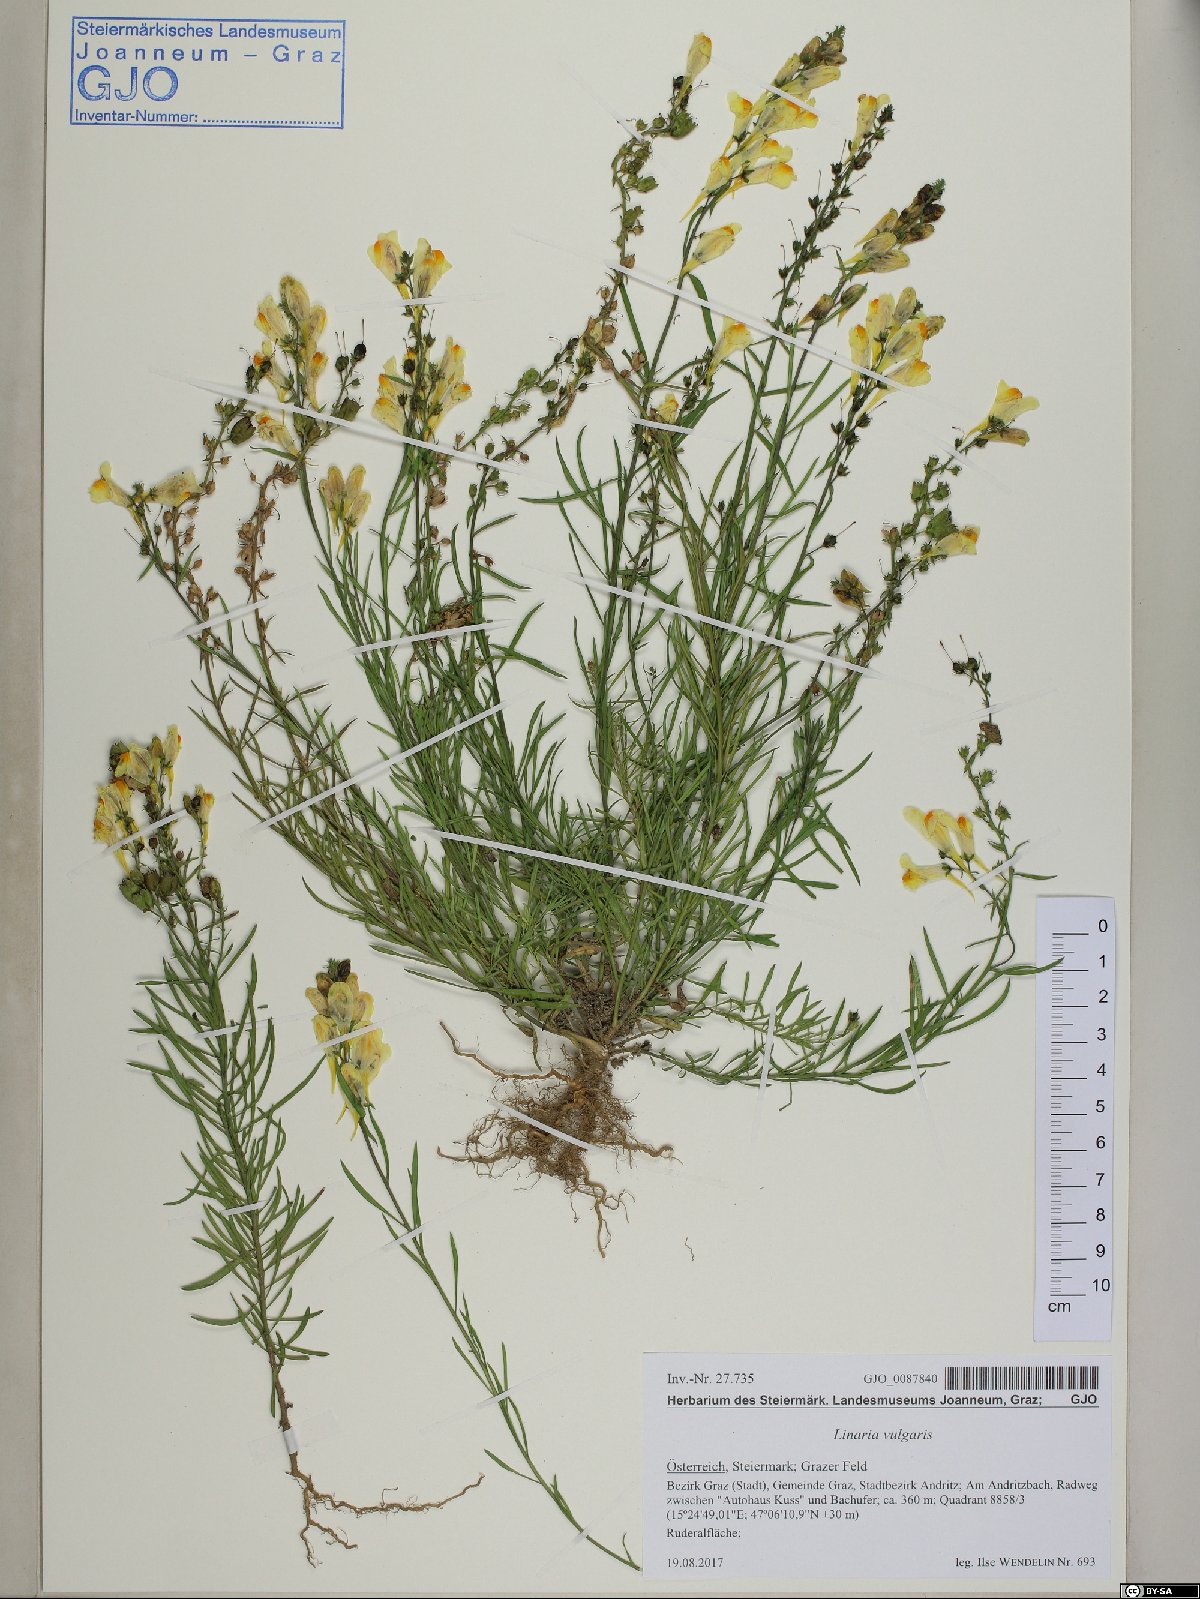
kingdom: Plantae
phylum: Tracheophyta
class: Magnoliopsida
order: Lamiales
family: Plantaginaceae
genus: Linaria
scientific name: Linaria vulgaris
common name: Butter and eggs
